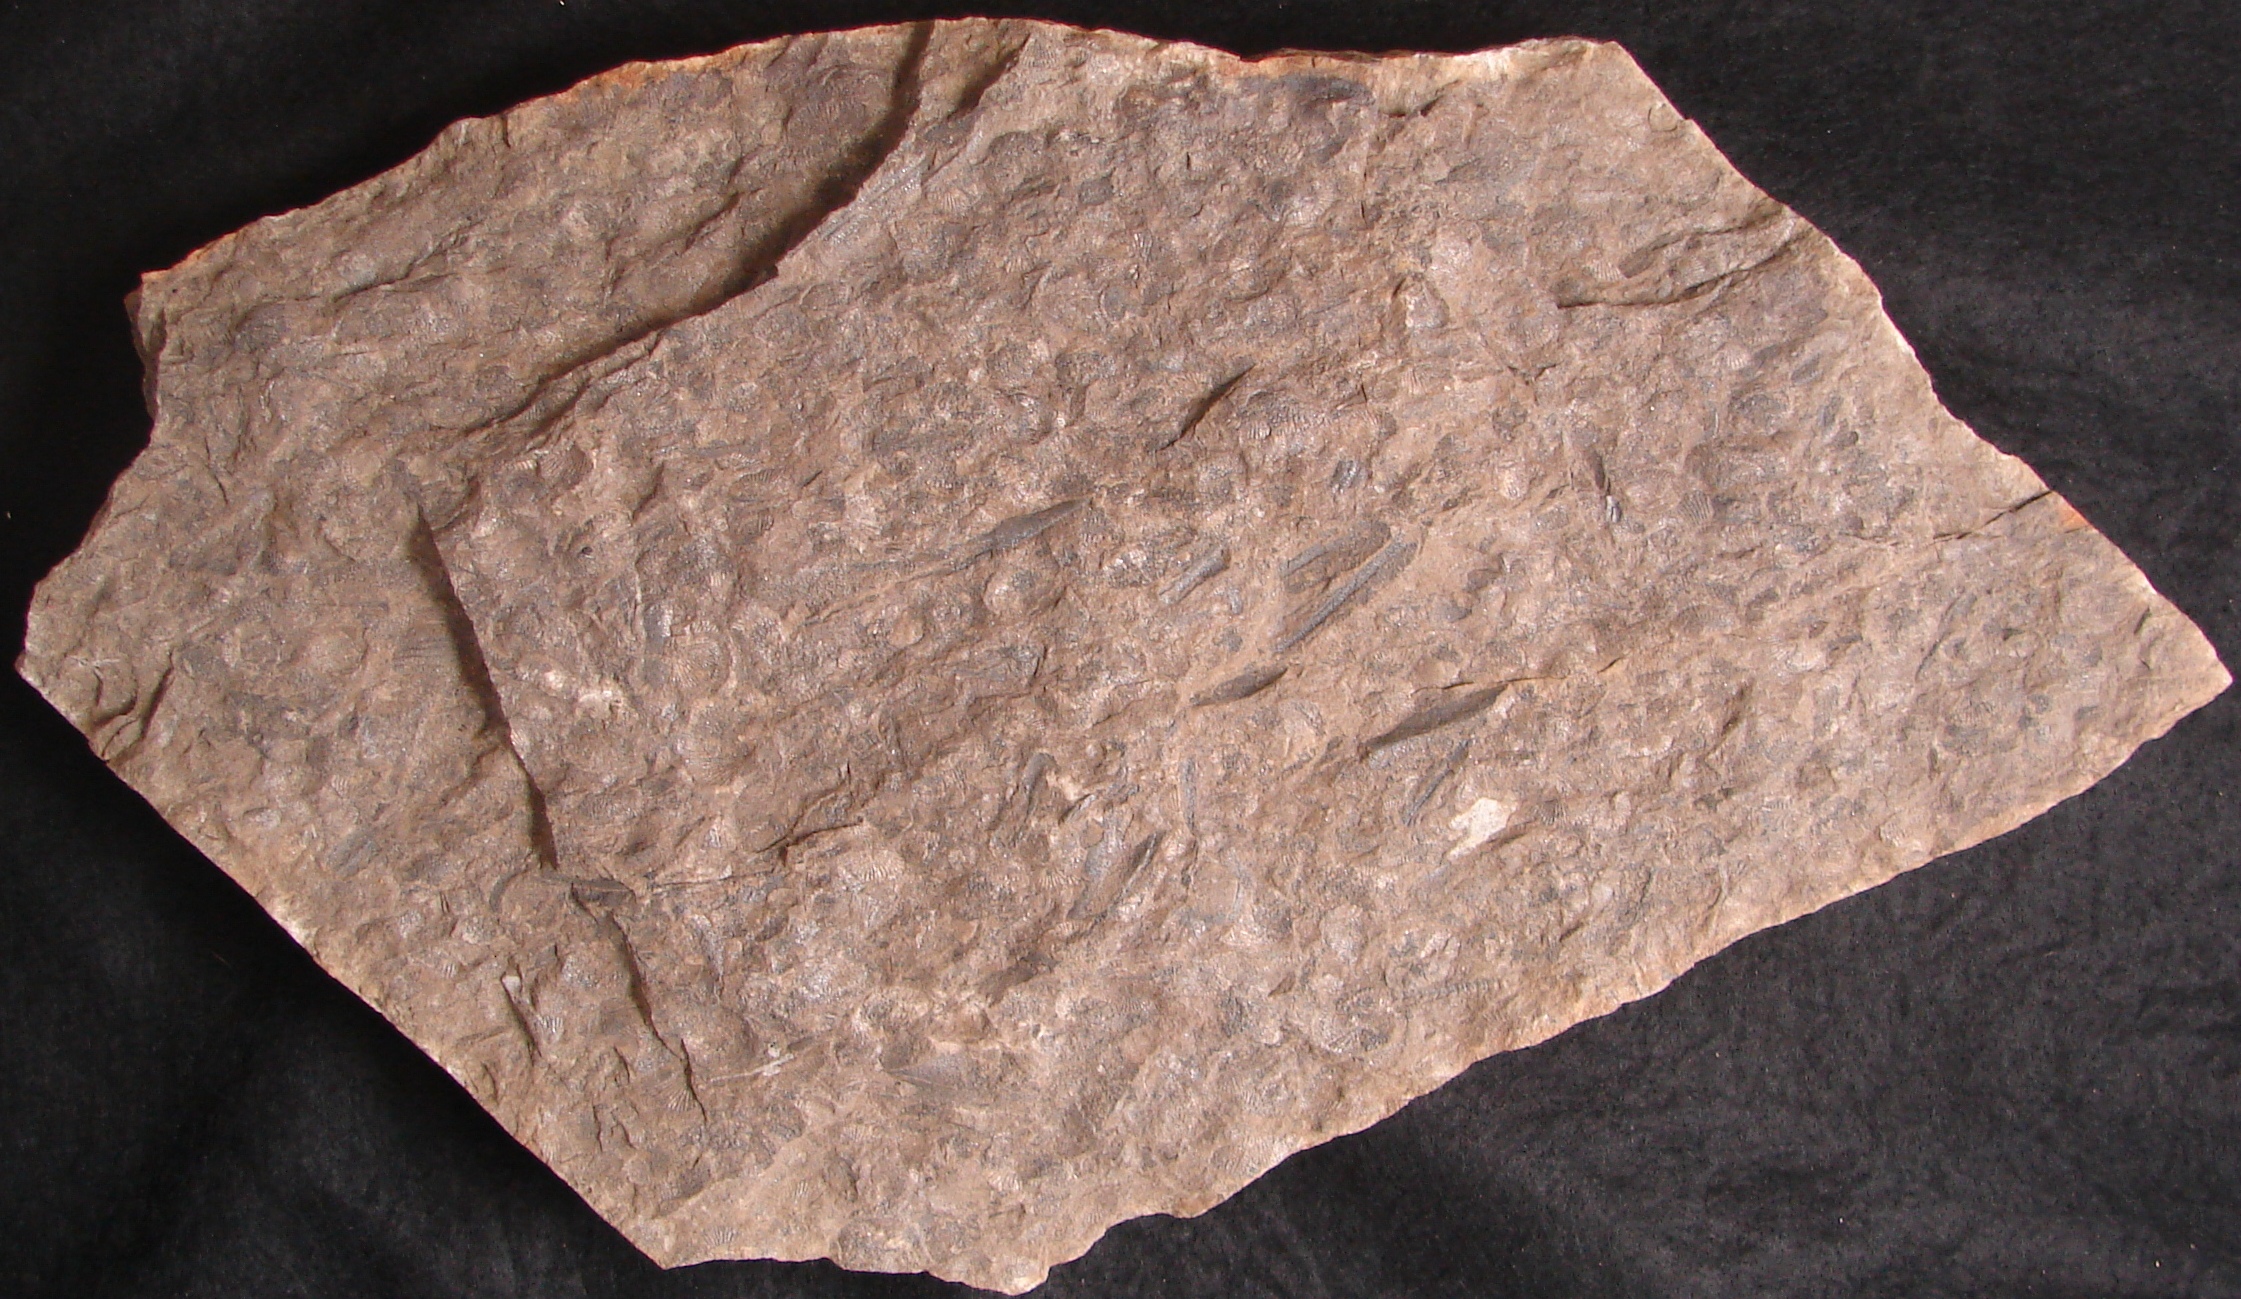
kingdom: Animalia
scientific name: Animalia
